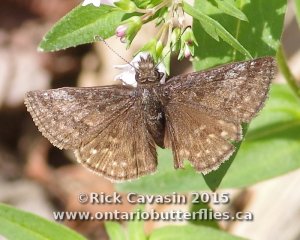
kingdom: Animalia
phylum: Arthropoda
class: Insecta
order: Lepidoptera
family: Hesperiidae
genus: Erynnis
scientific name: Erynnis icelus
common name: Dreamy Duskywing
